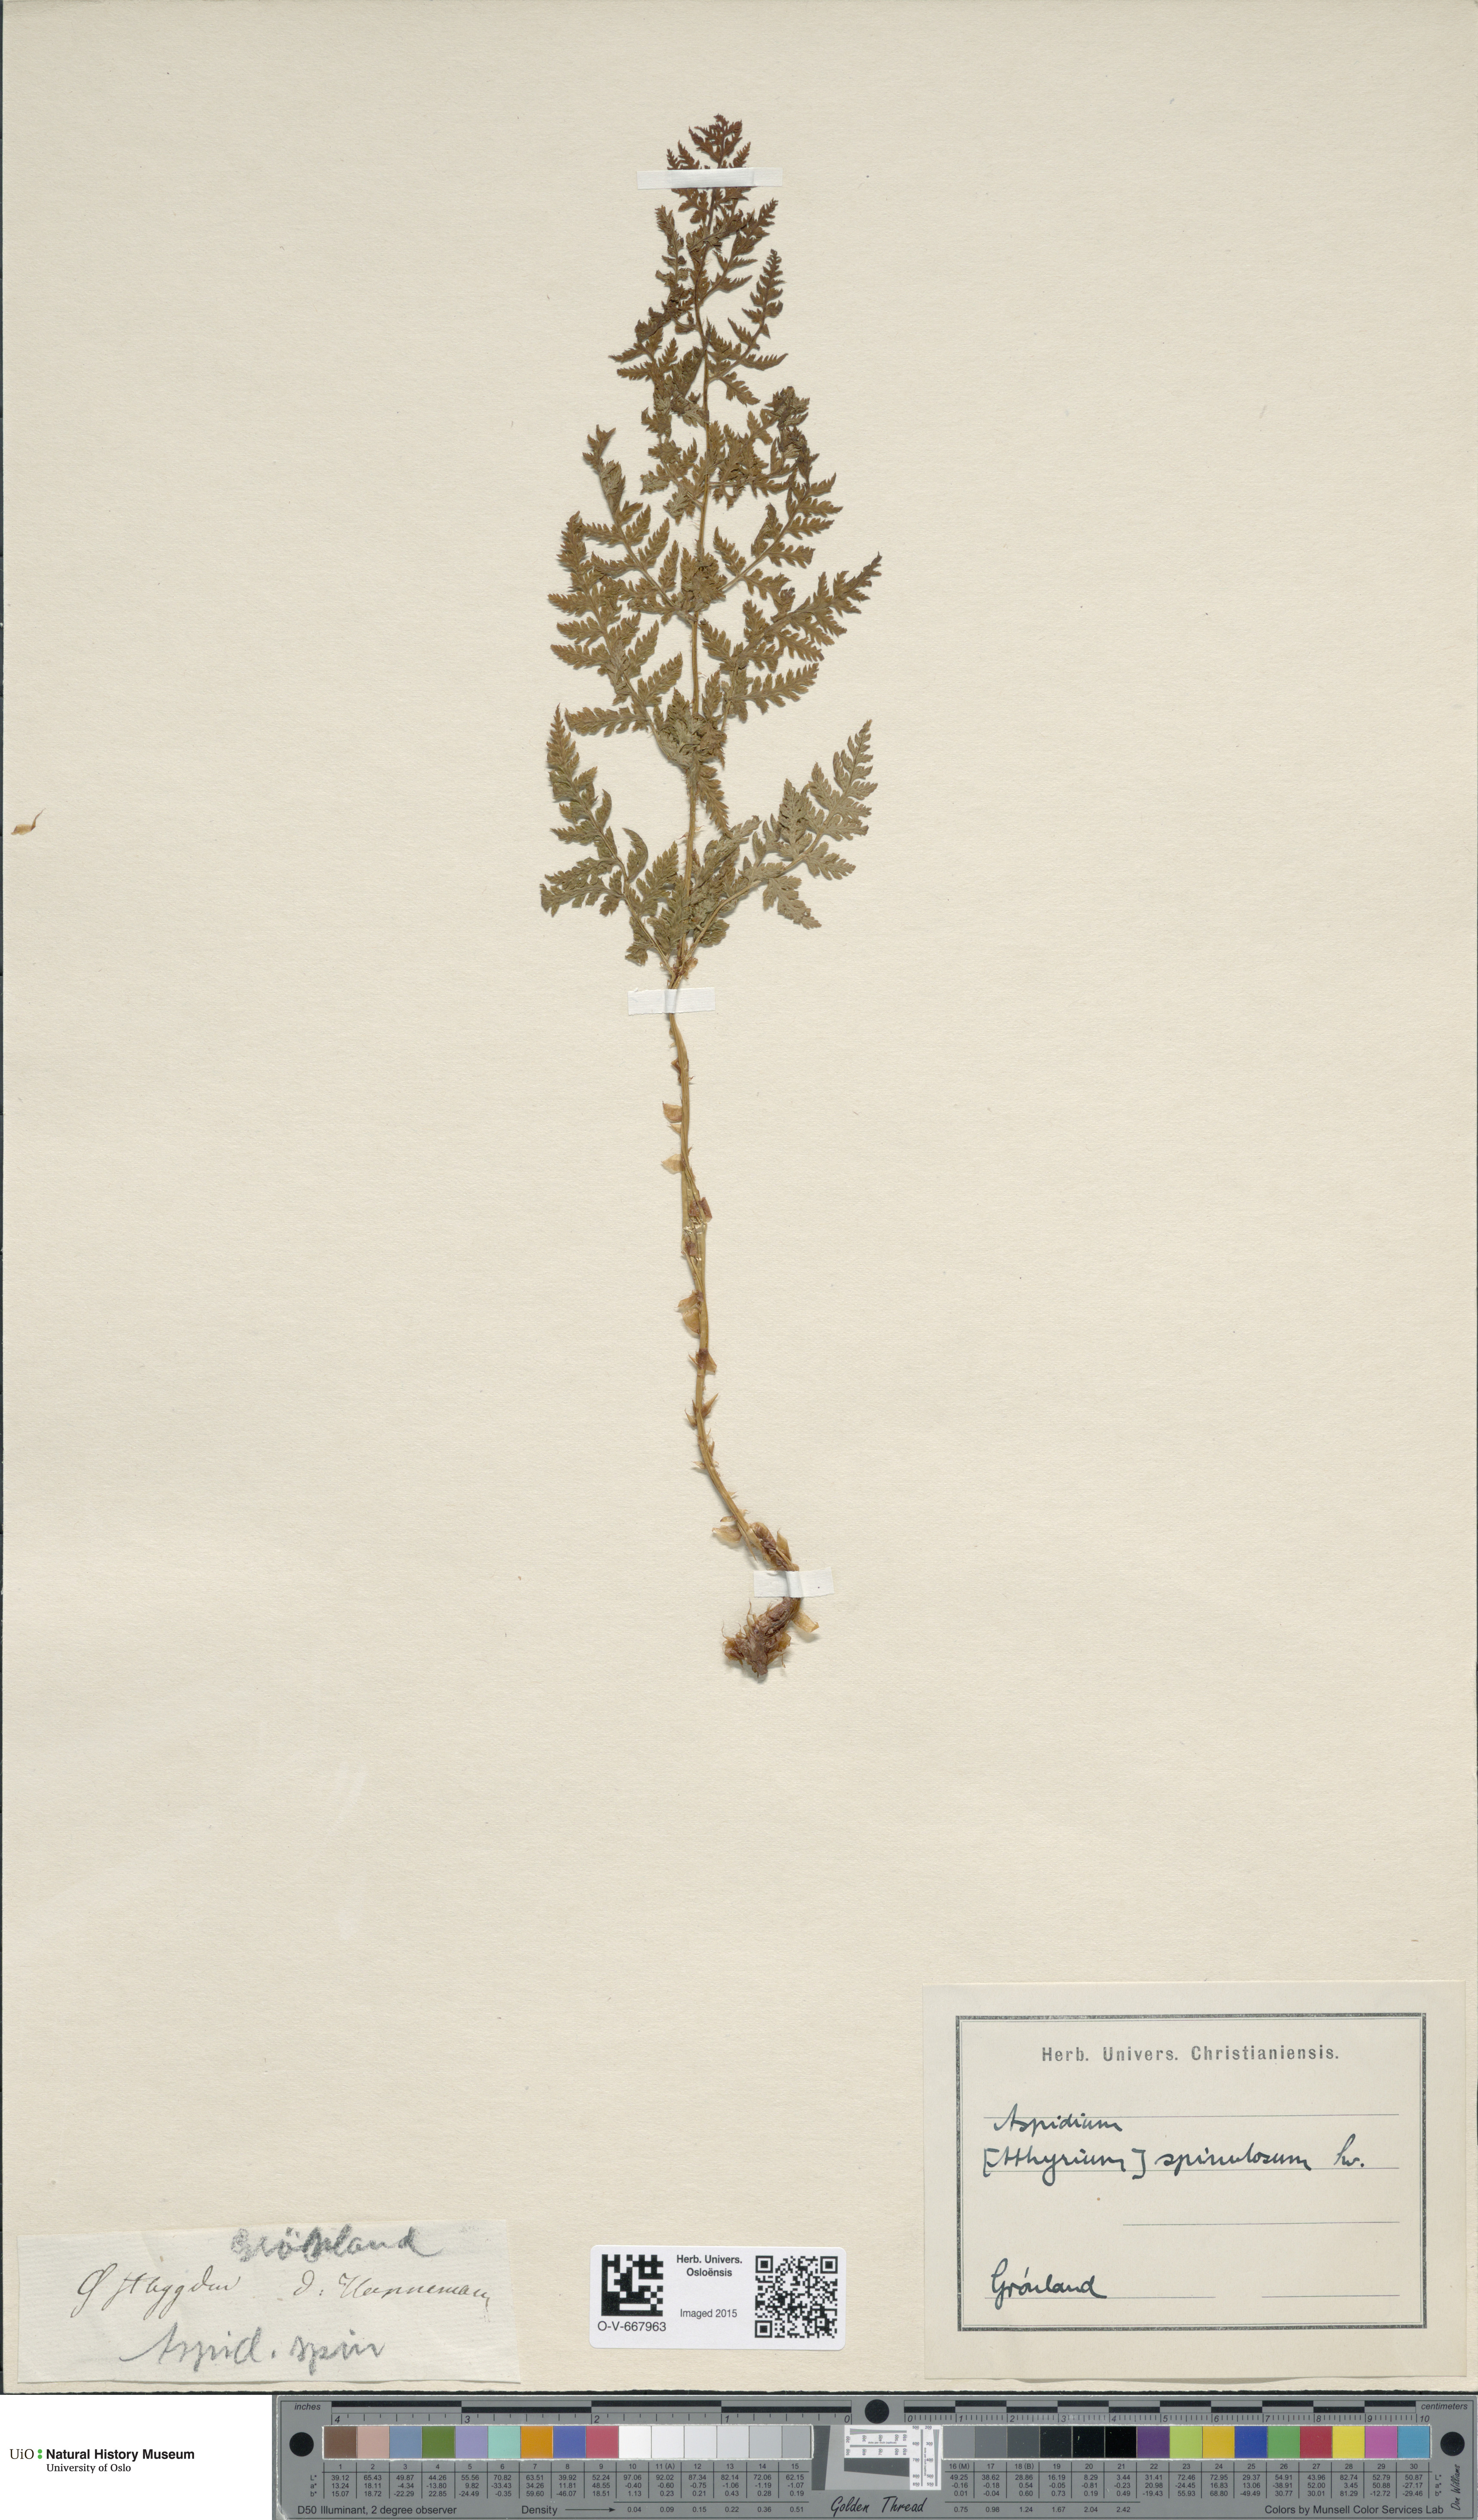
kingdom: Plantae
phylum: Tracheophyta
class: Polypodiopsida
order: Polypodiales
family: Dryopteridaceae
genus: Dryopteris
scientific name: Dryopteris carthusiana
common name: Narrow buckler-fern
